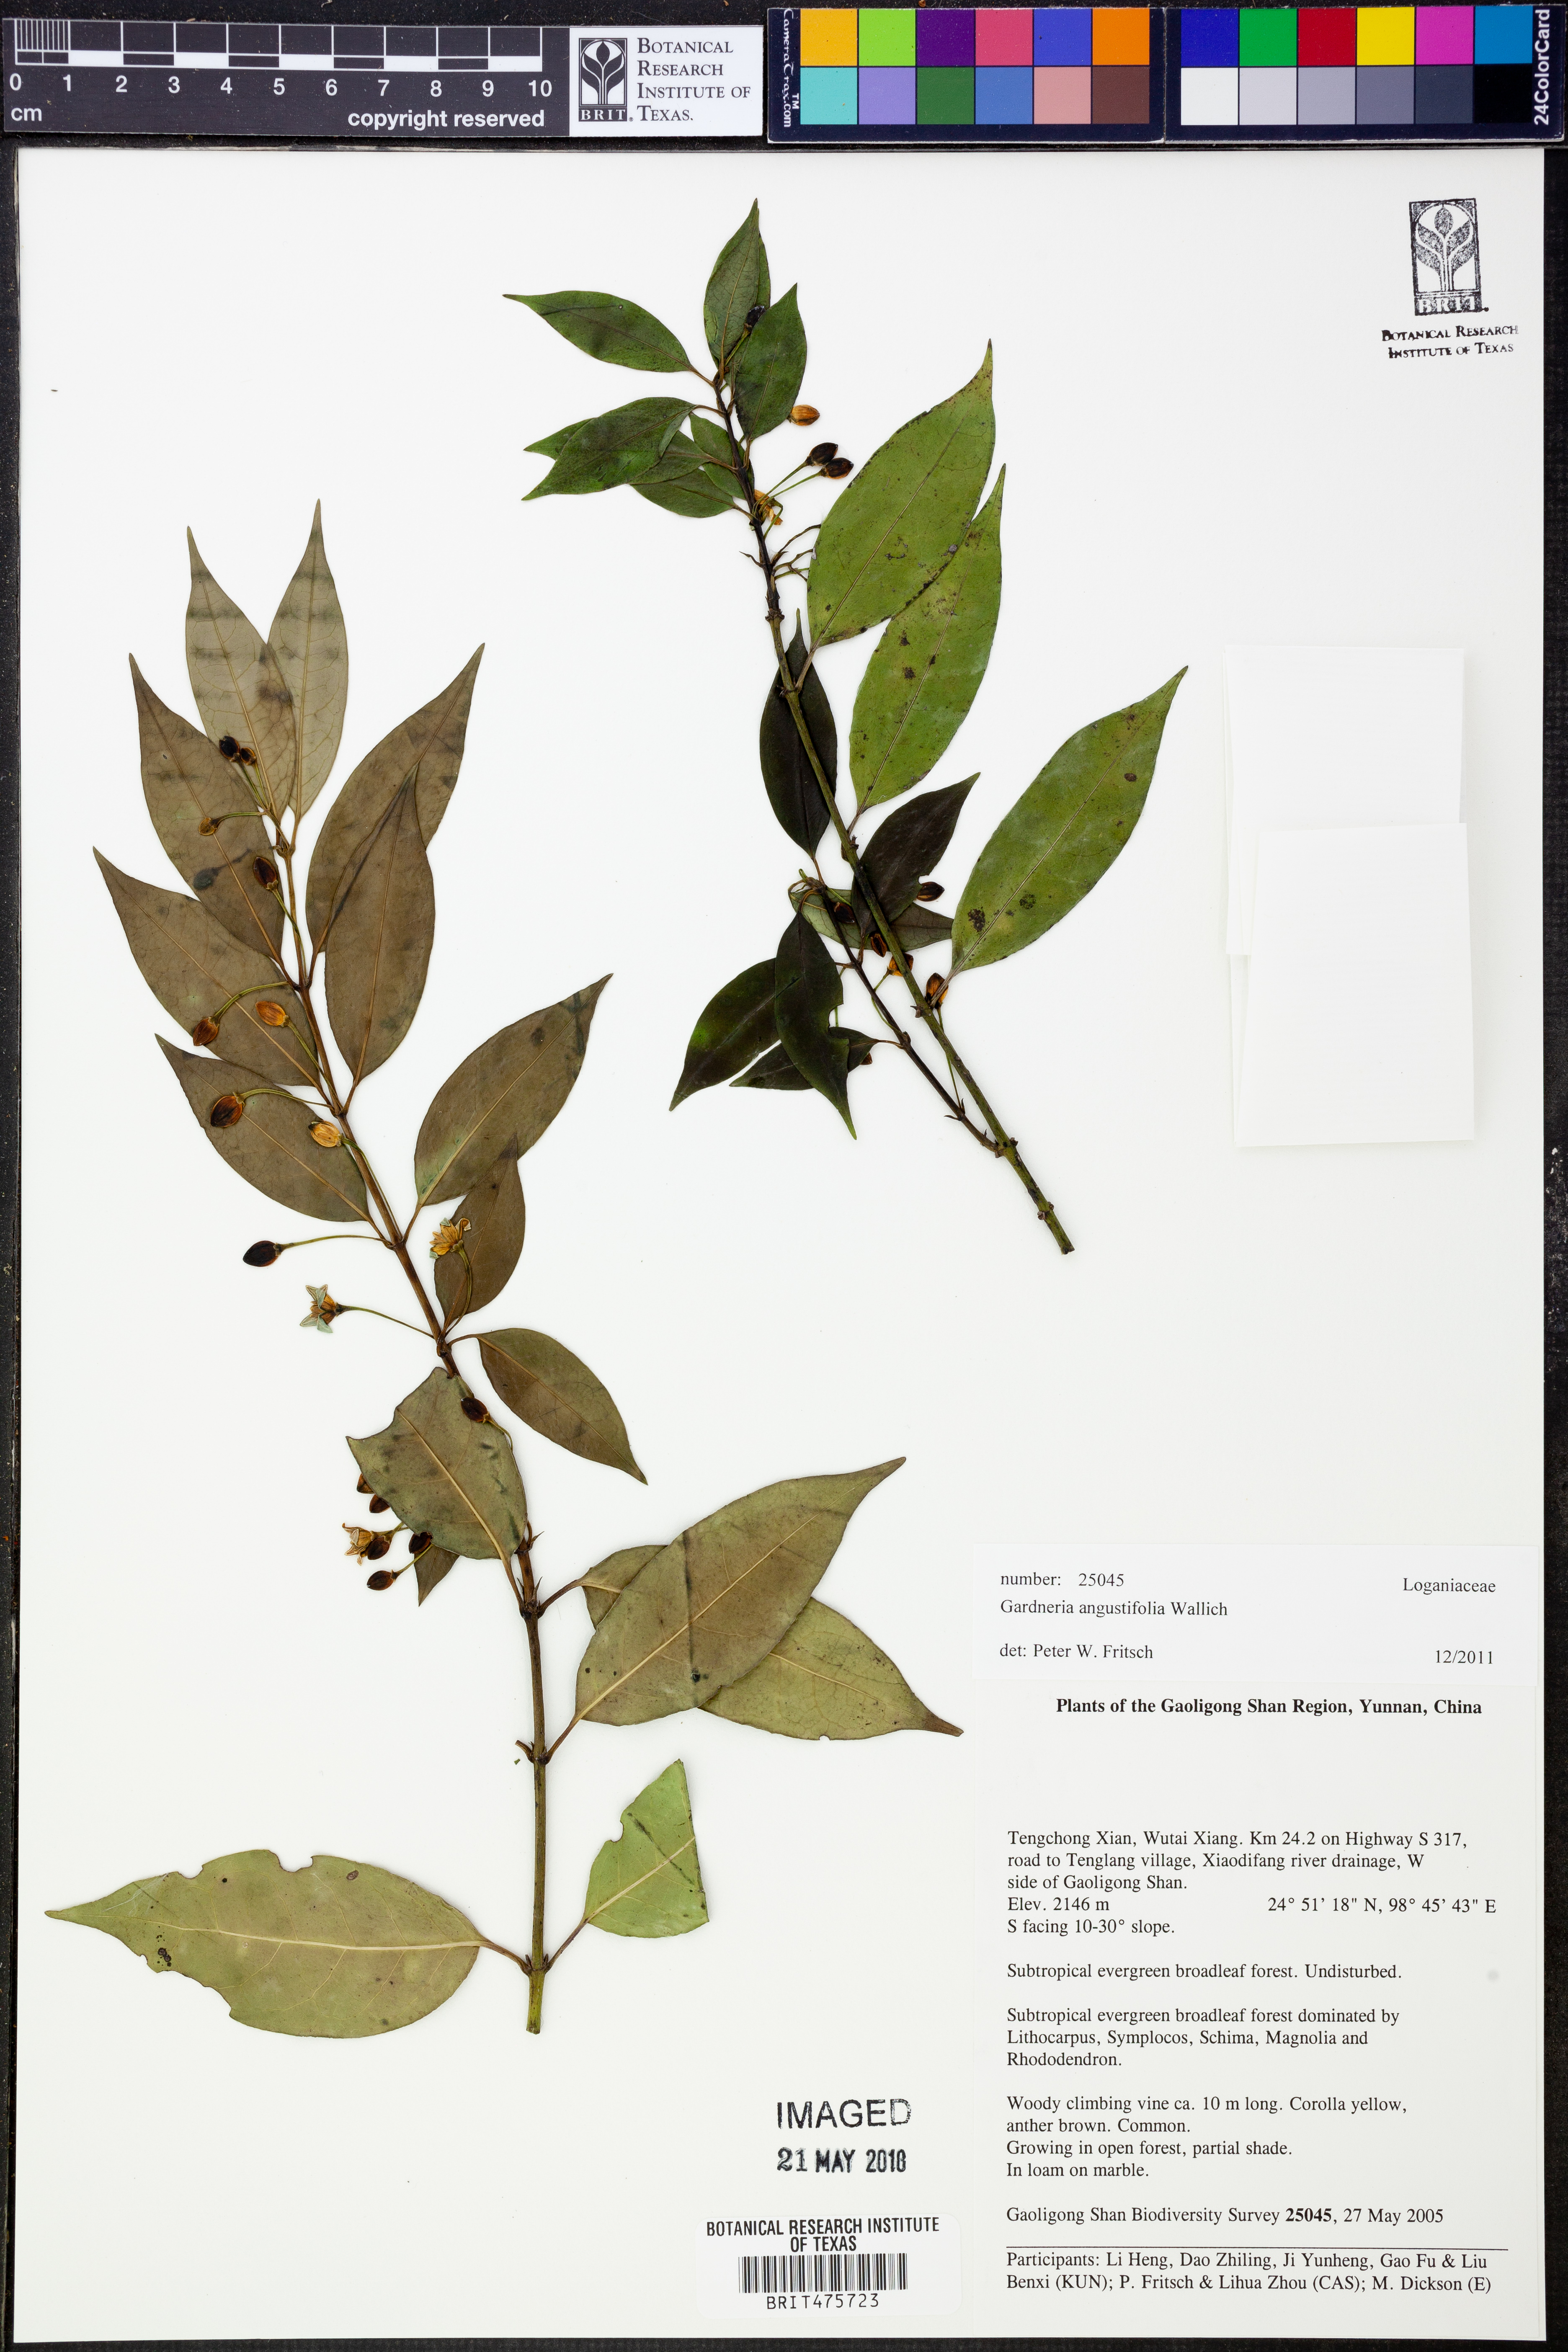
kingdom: Plantae
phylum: Tracheophyta
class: Magnoliopsida
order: Gentianales
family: Loganiaceae
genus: Gardneria
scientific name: Gardneria angustifolia
